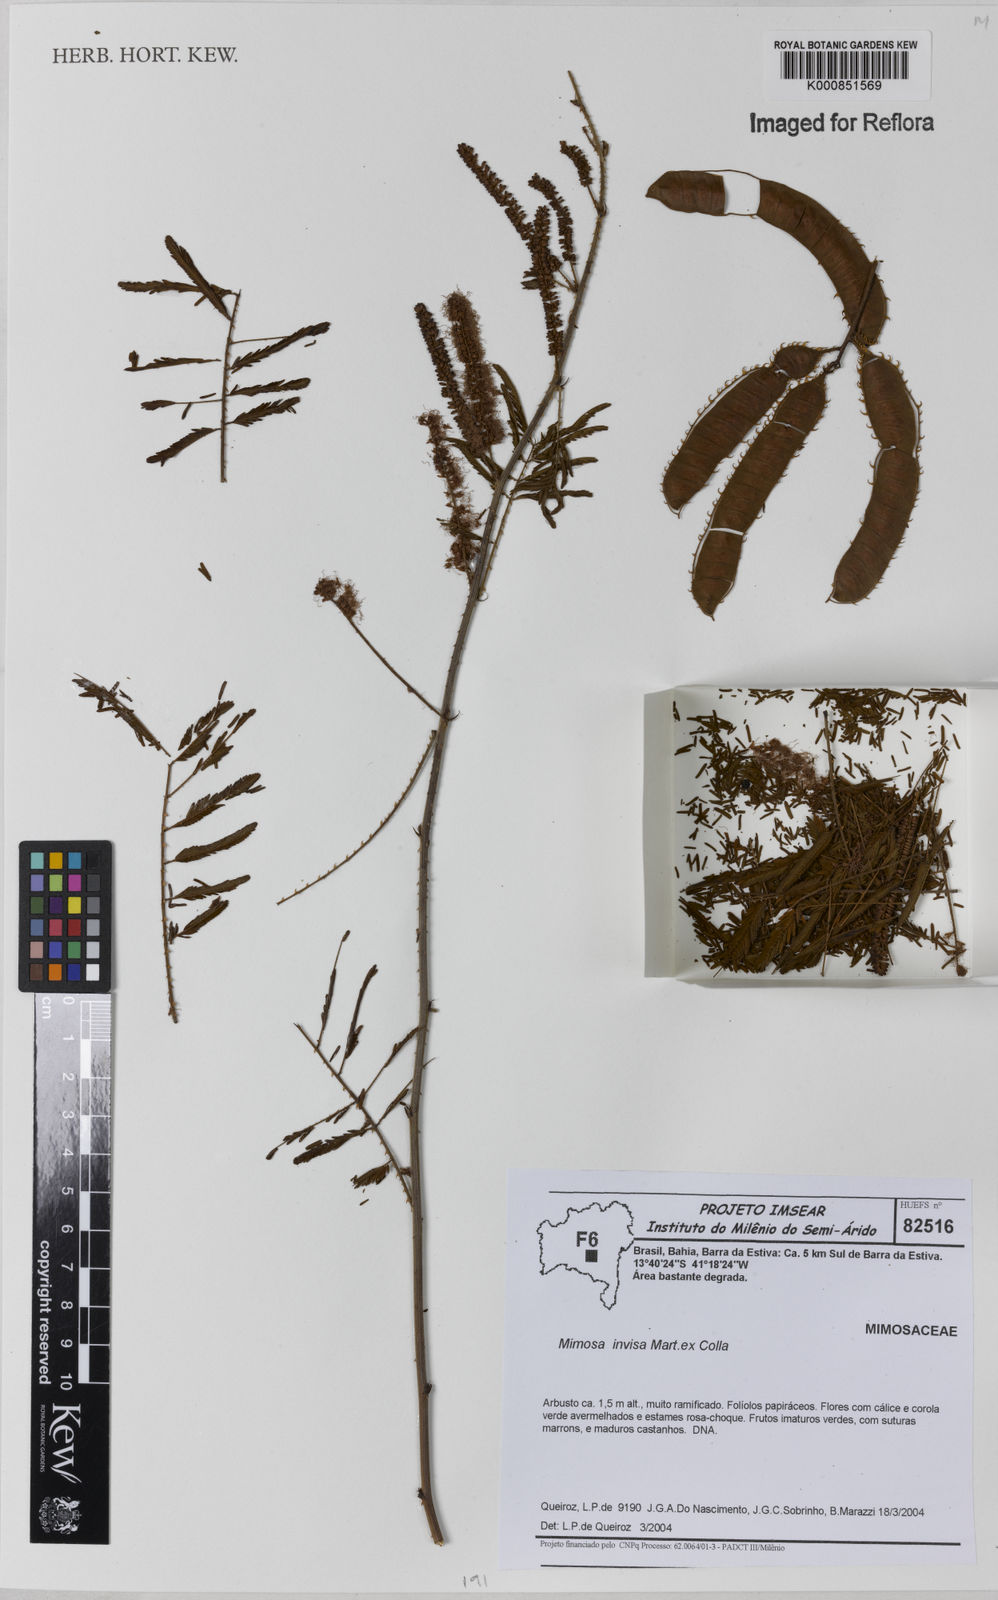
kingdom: Plantae
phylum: Tracheophyta
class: Magnoliopsida
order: Fabales
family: Fabaceae
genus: Mimosa
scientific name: Mimosa
